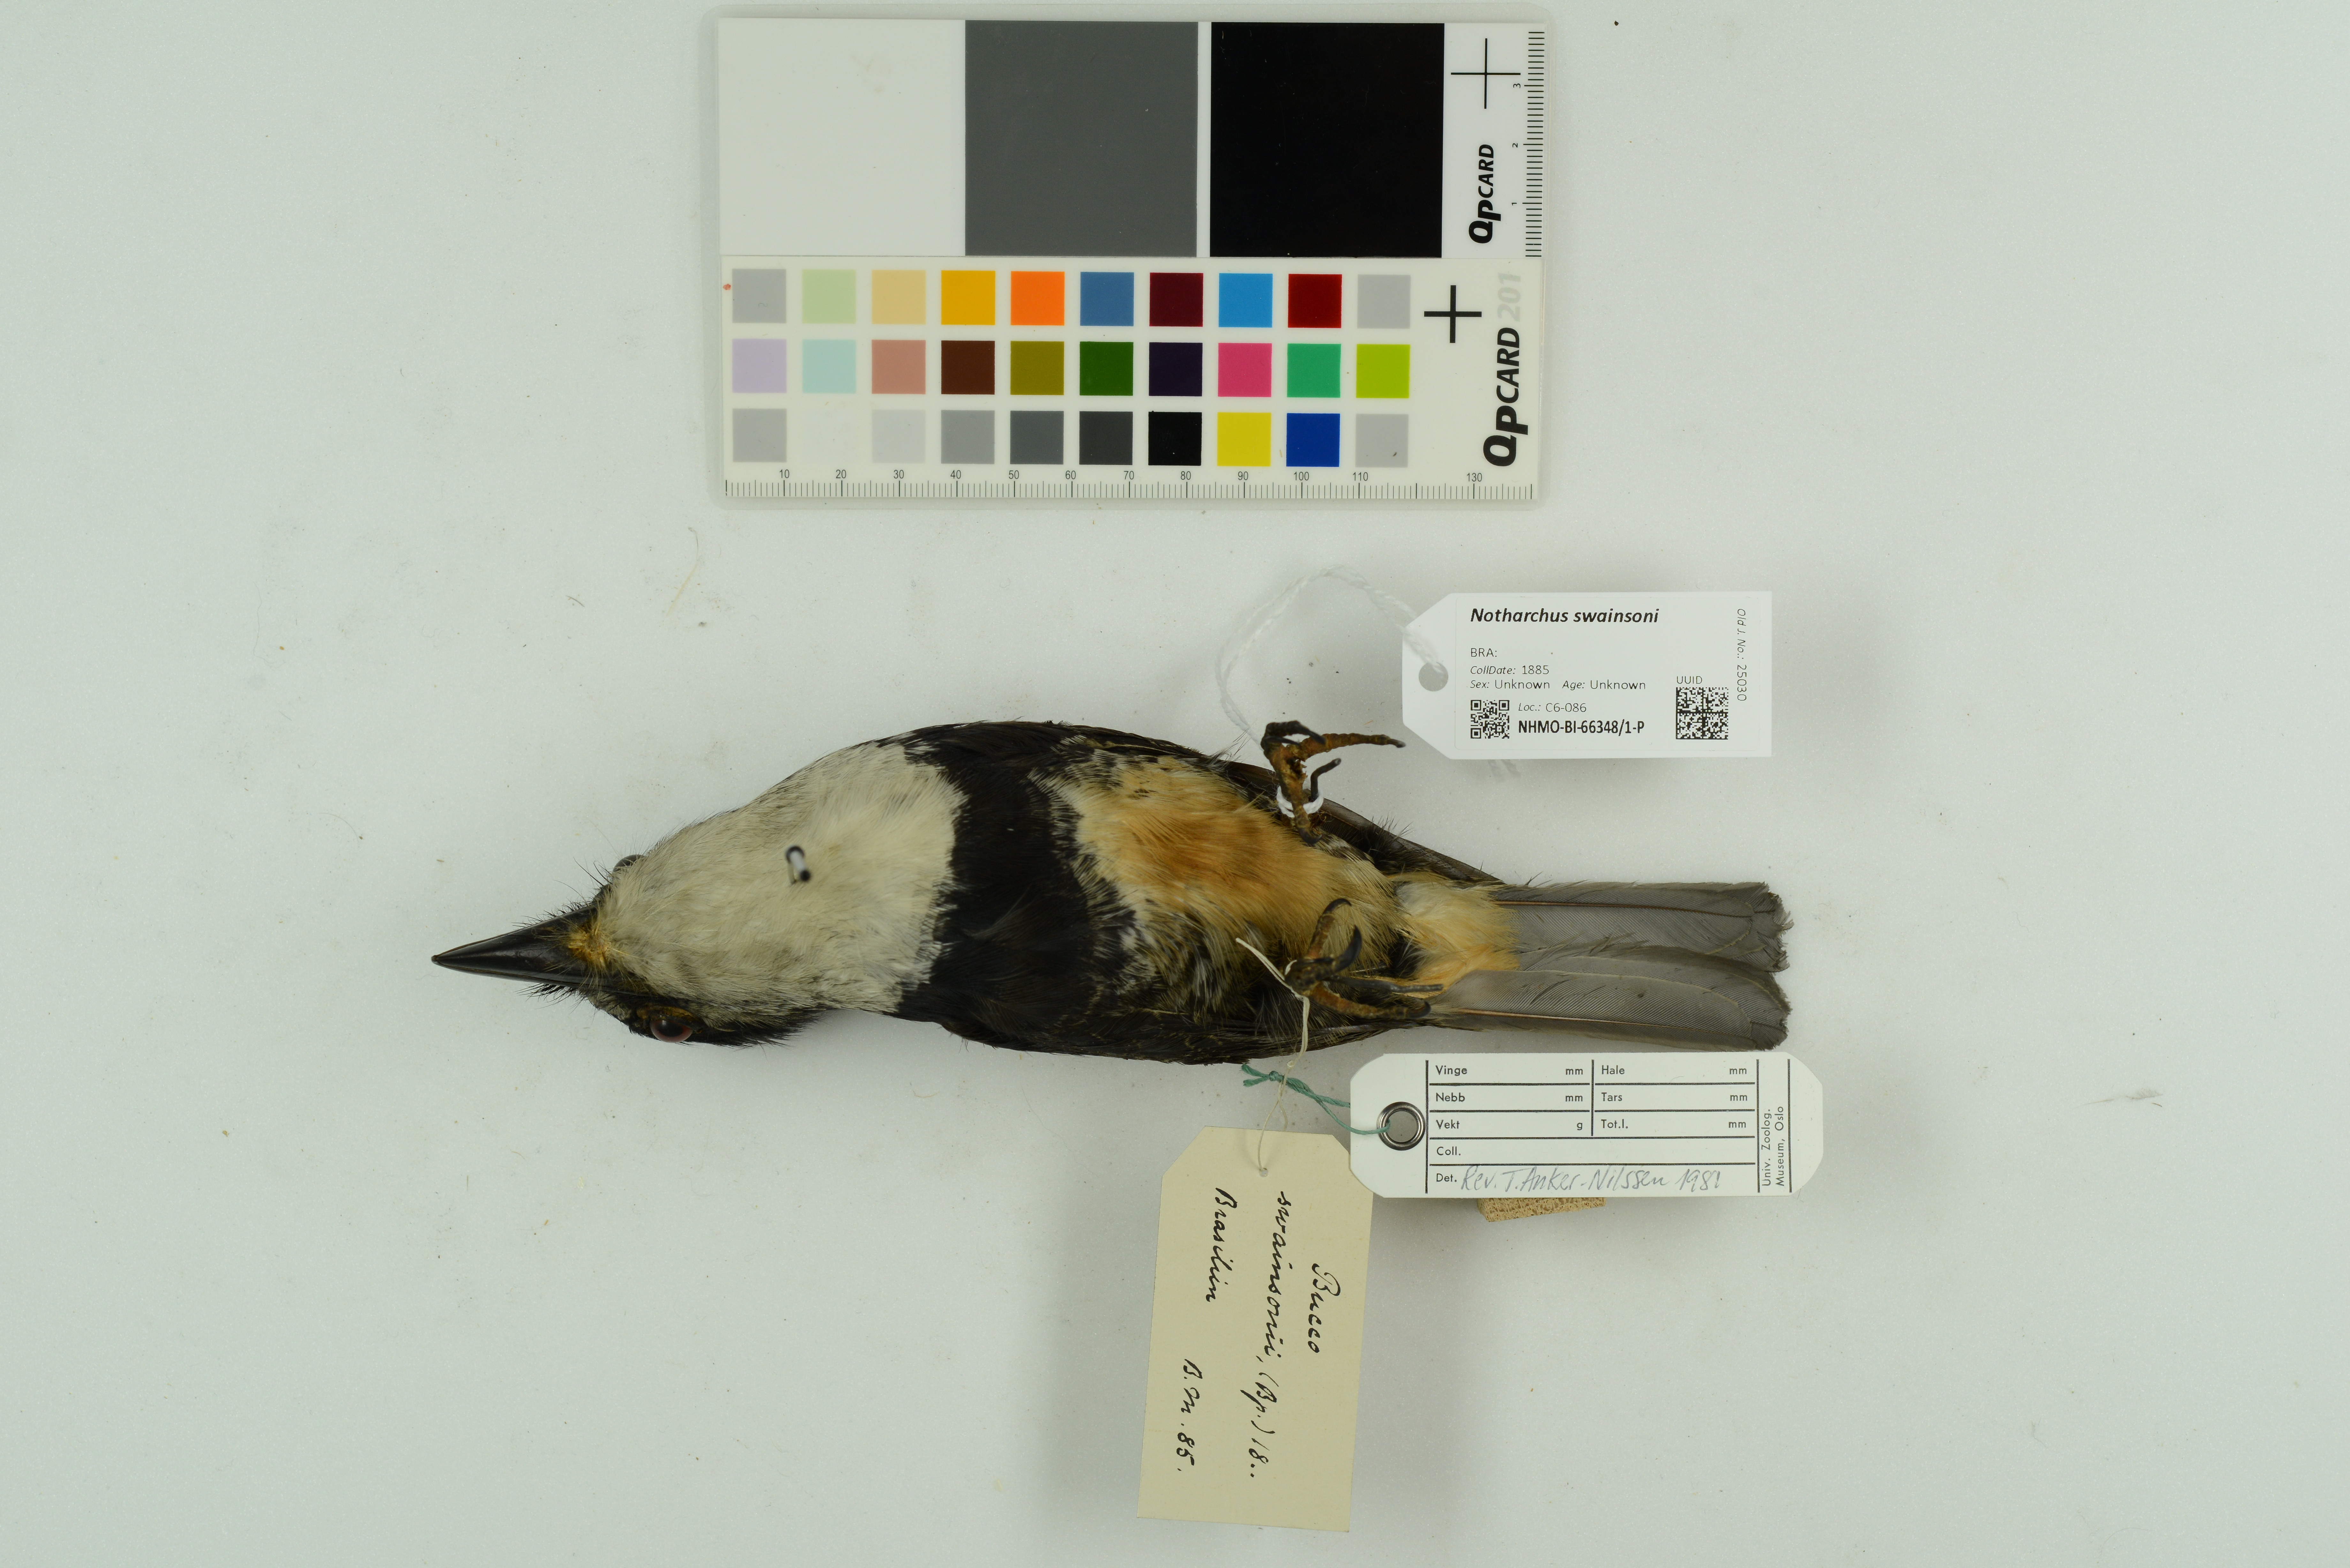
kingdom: Animalia
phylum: Chordata
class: Aves
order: Piciformes
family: Bucconidae
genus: Notharchus
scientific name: Notharchus swainsoni
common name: Buff-bellied puffbird
